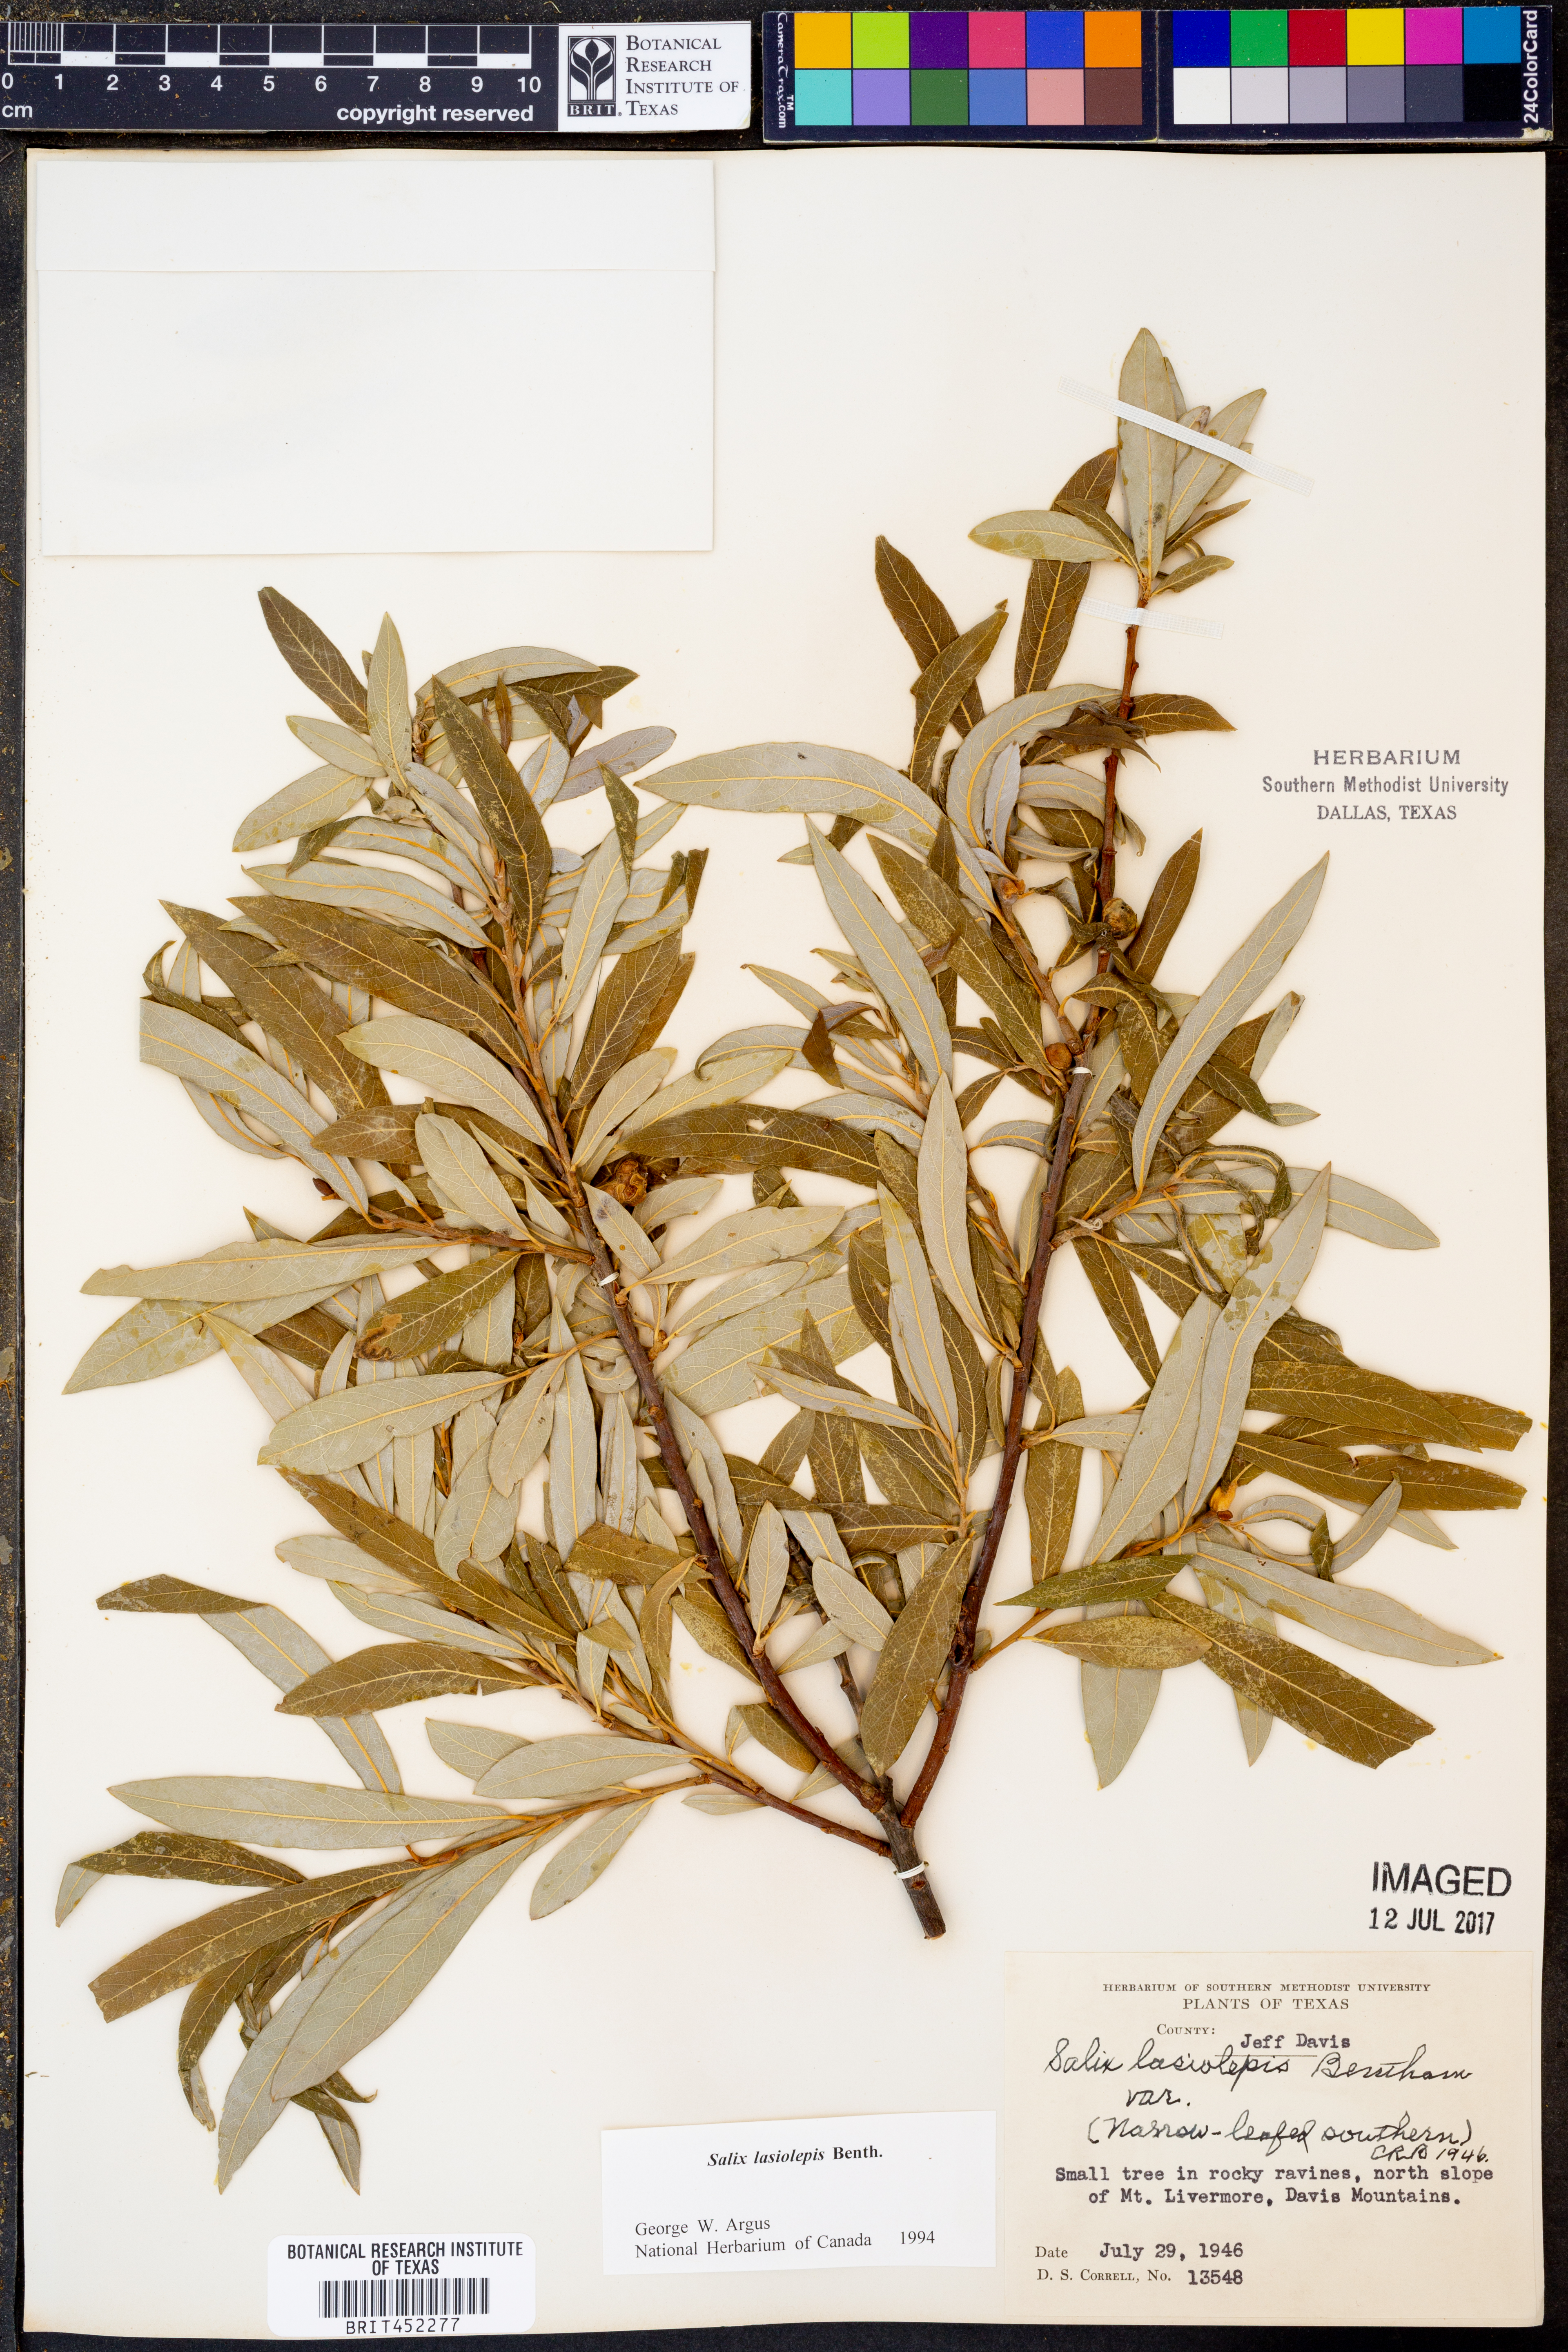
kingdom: Plantae
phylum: Tracheophyta
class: Magnoliopsida
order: Malpighiales
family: Salicaceae
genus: Salix
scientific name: Salix lasiolepis
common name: Arroyo willow
